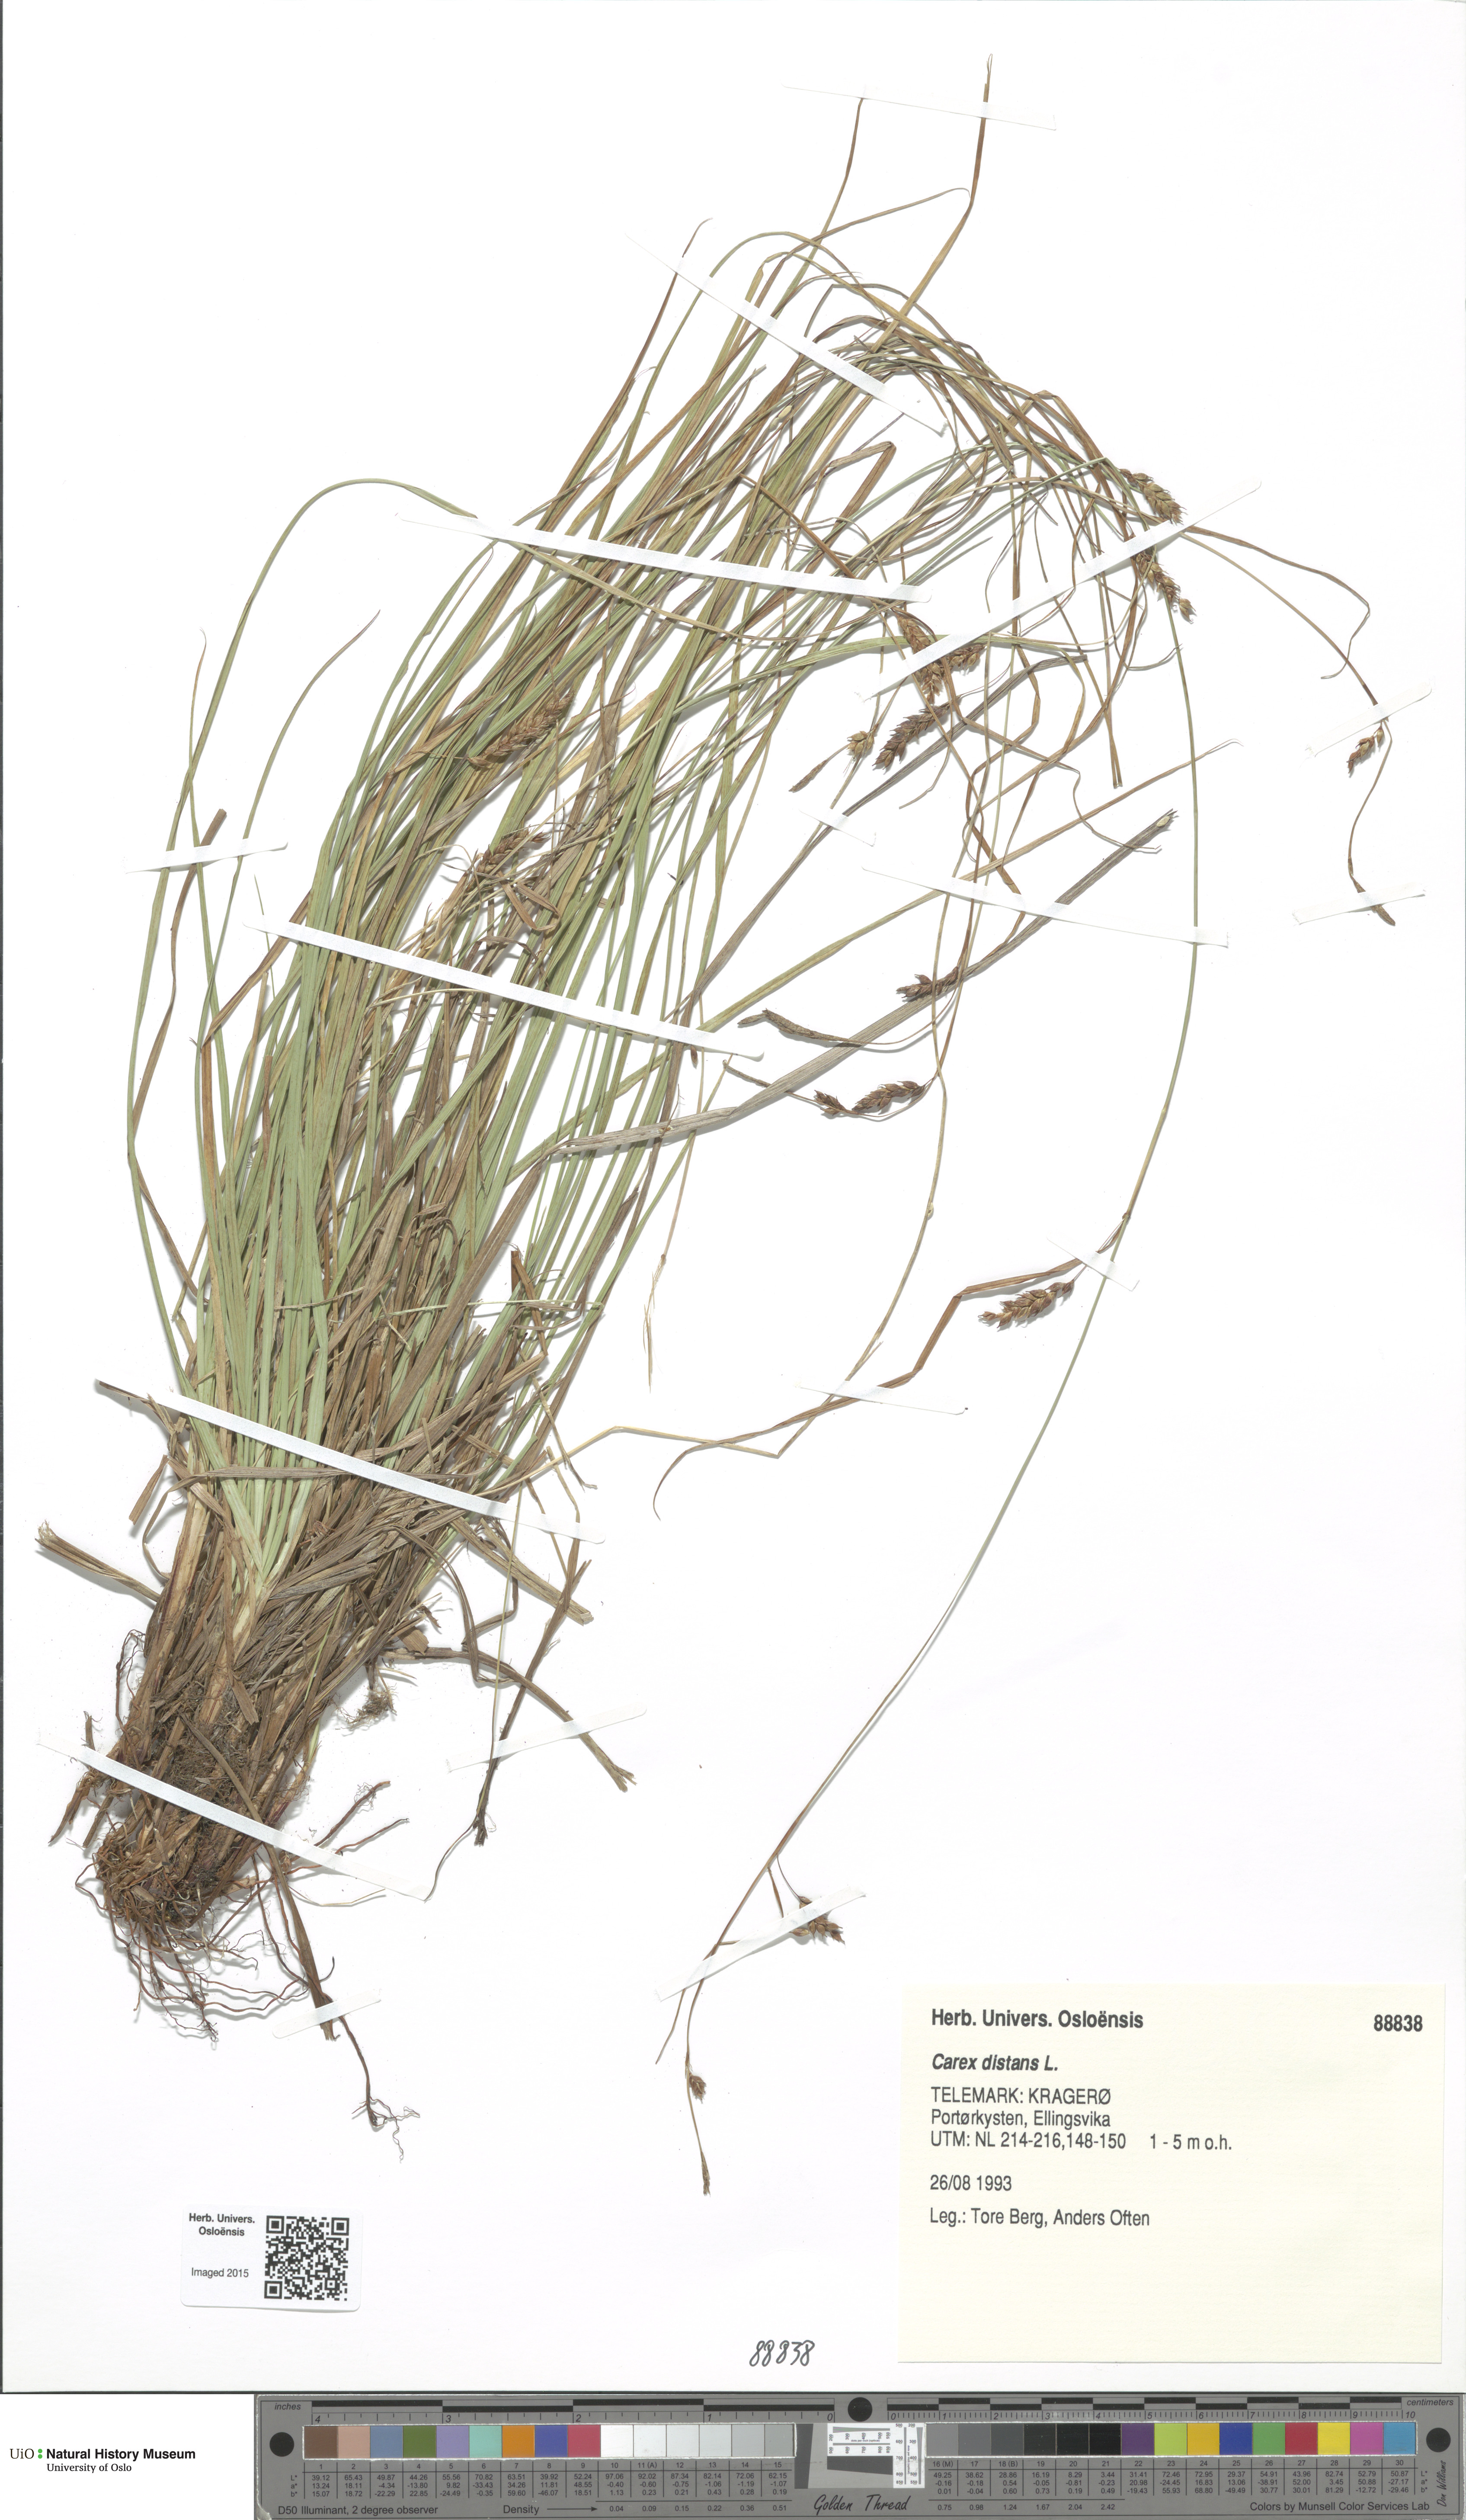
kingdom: Plantae
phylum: Tracheophyta
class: Liliopsida
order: Poales
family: Cyperaceae
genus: Carex
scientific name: Carex distans
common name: Distant sedge
